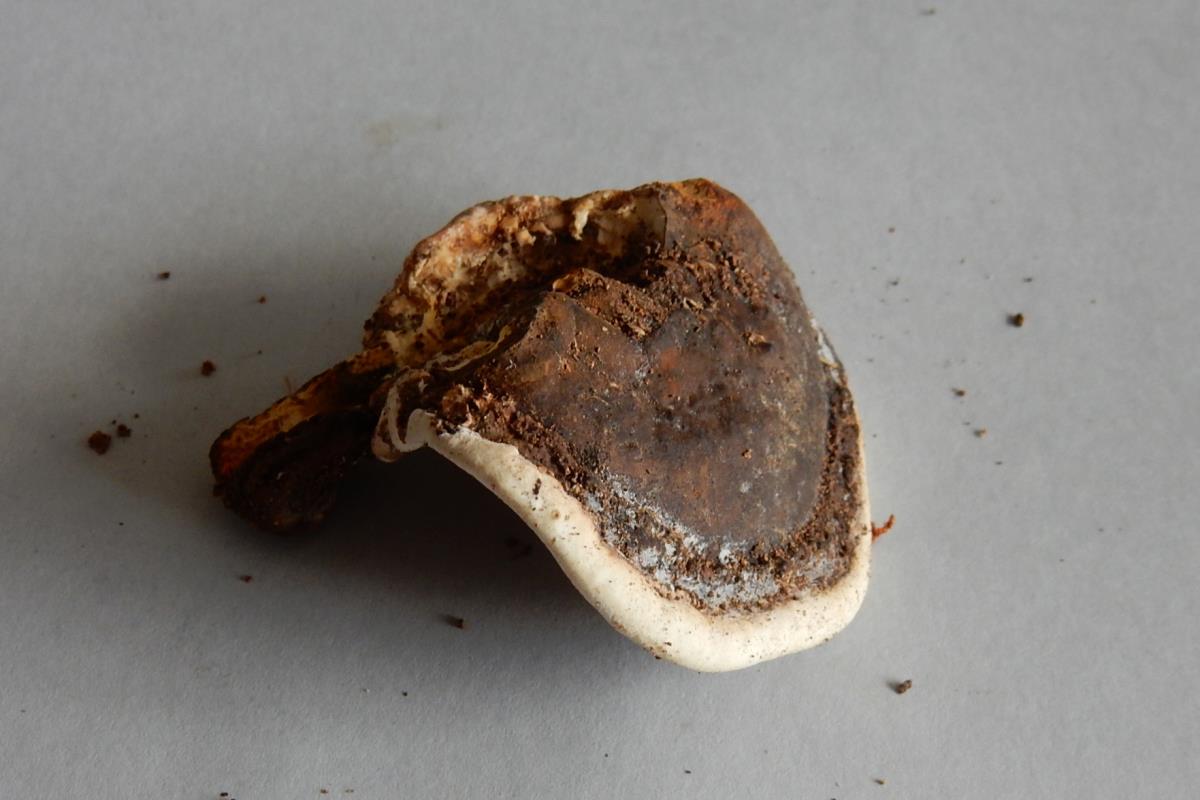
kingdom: Fungi
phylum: Basidiomycota
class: Agaricomycetes
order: Polyporales
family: Fomitopsidaceae
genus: Pilatoporus
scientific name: Pilatoporus hemitephrus
